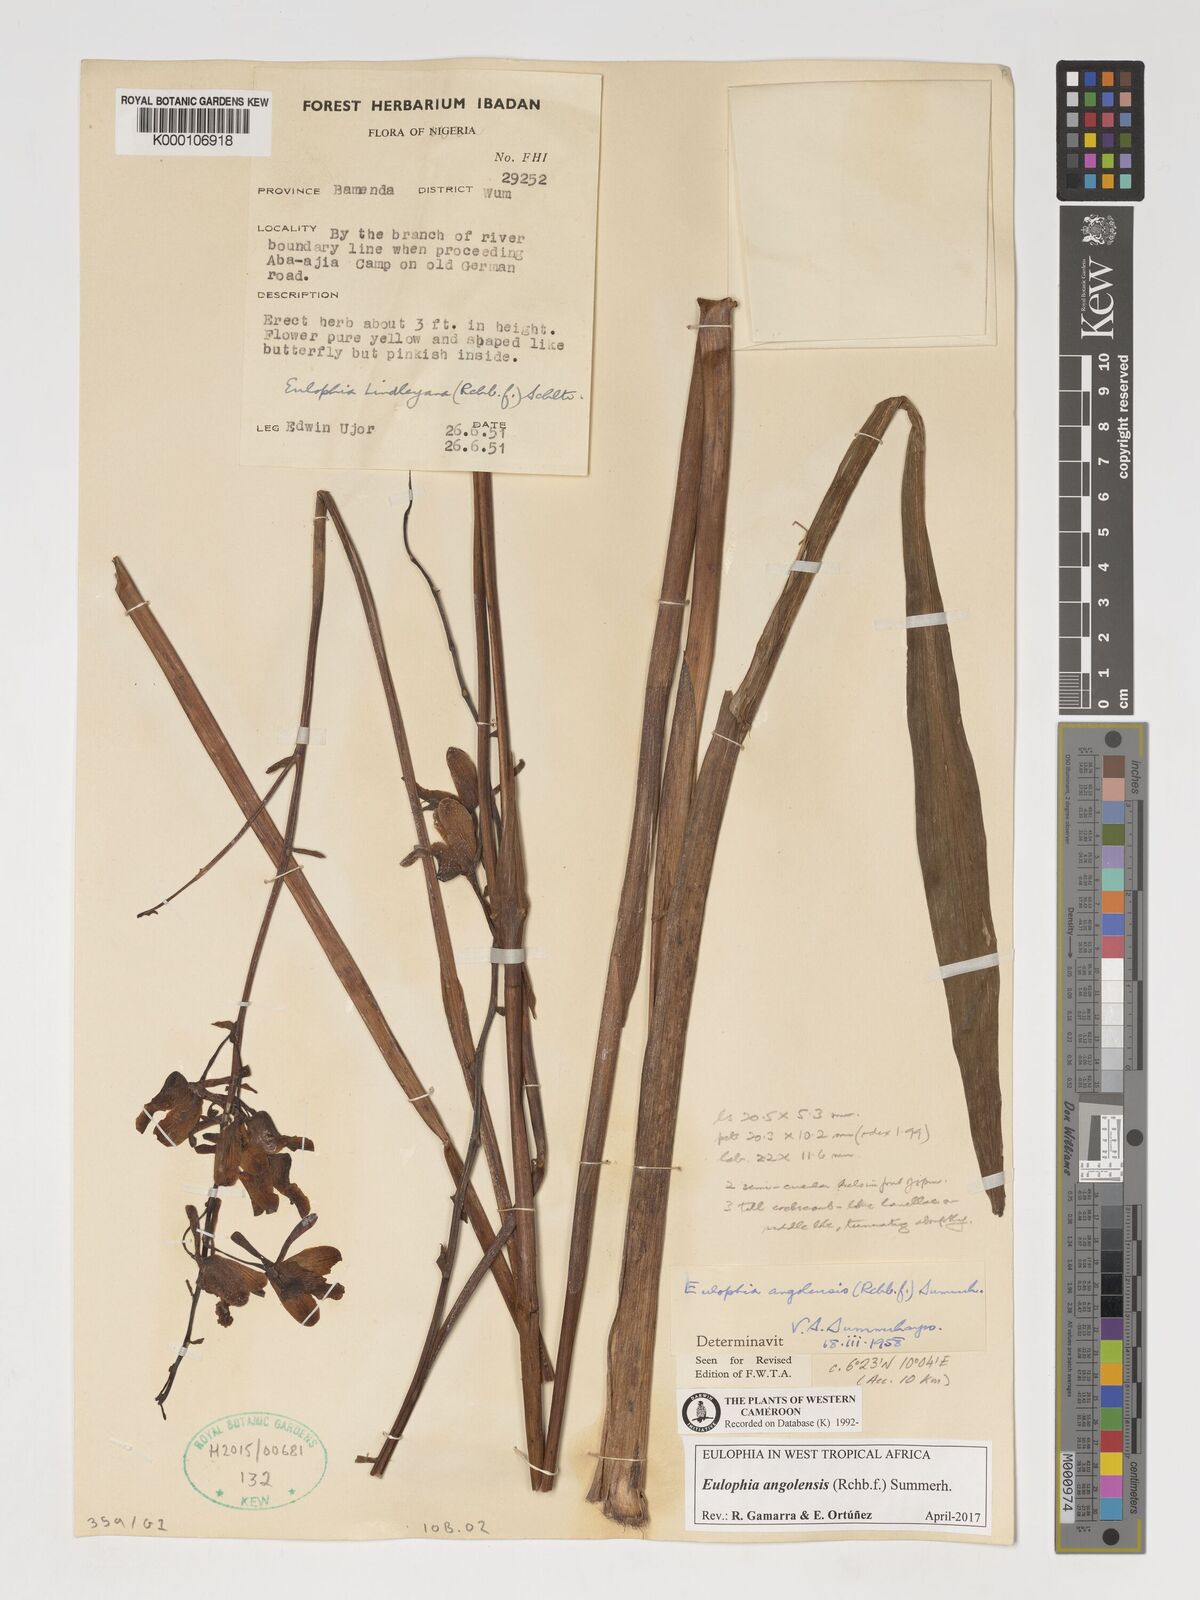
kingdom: Plantae
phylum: Tracheophyta
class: Liliopsida
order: Asparagales
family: Orchidaceae
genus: Eulophia
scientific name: Eulophia angolensis
